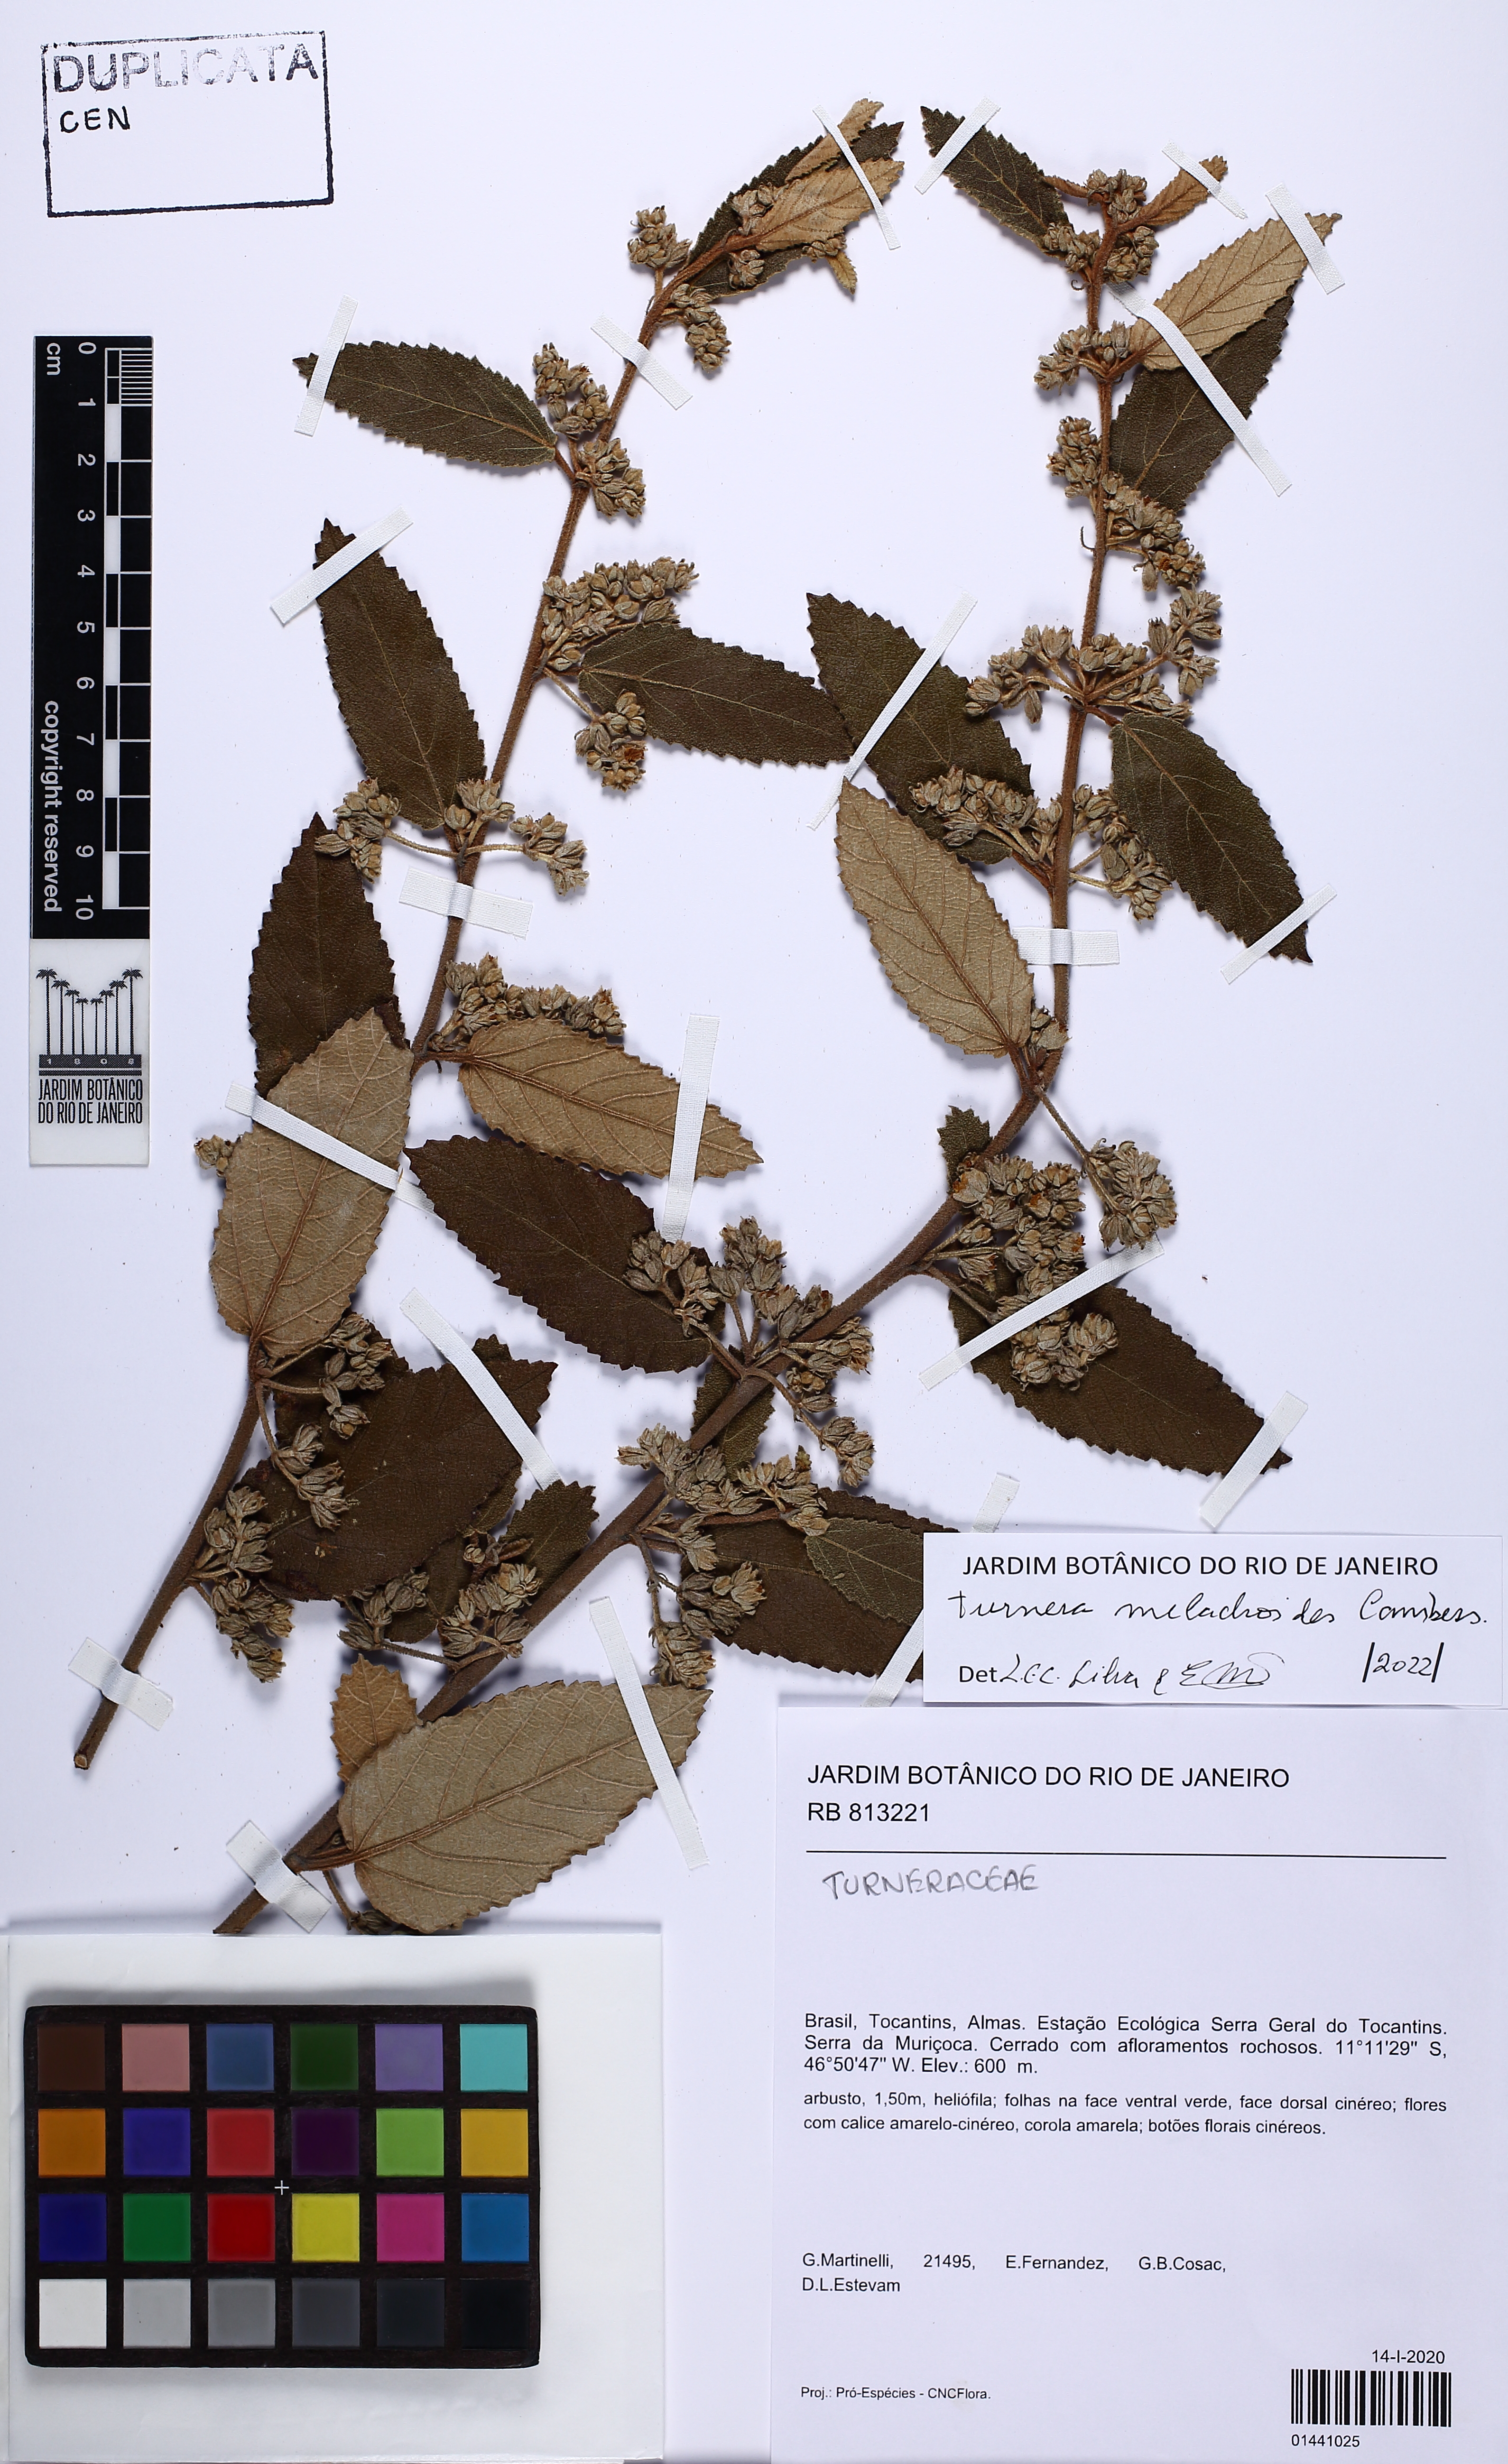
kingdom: Plantae
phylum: Tracheophyta
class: Magnoliopsida
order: Malpighiales
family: Turneraceae
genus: Turnera
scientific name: Turnera melochioides
